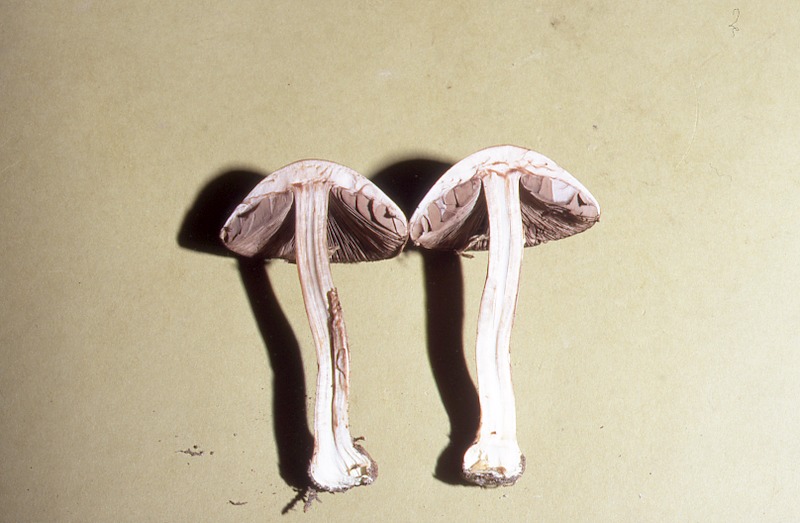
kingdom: Fungi
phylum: Basidiomycota
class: Agaricomycetes
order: Agaricales
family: Agaricaceae
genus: Agaricus
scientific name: Agaricus sylvaticus
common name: Blushing wood mushroom
